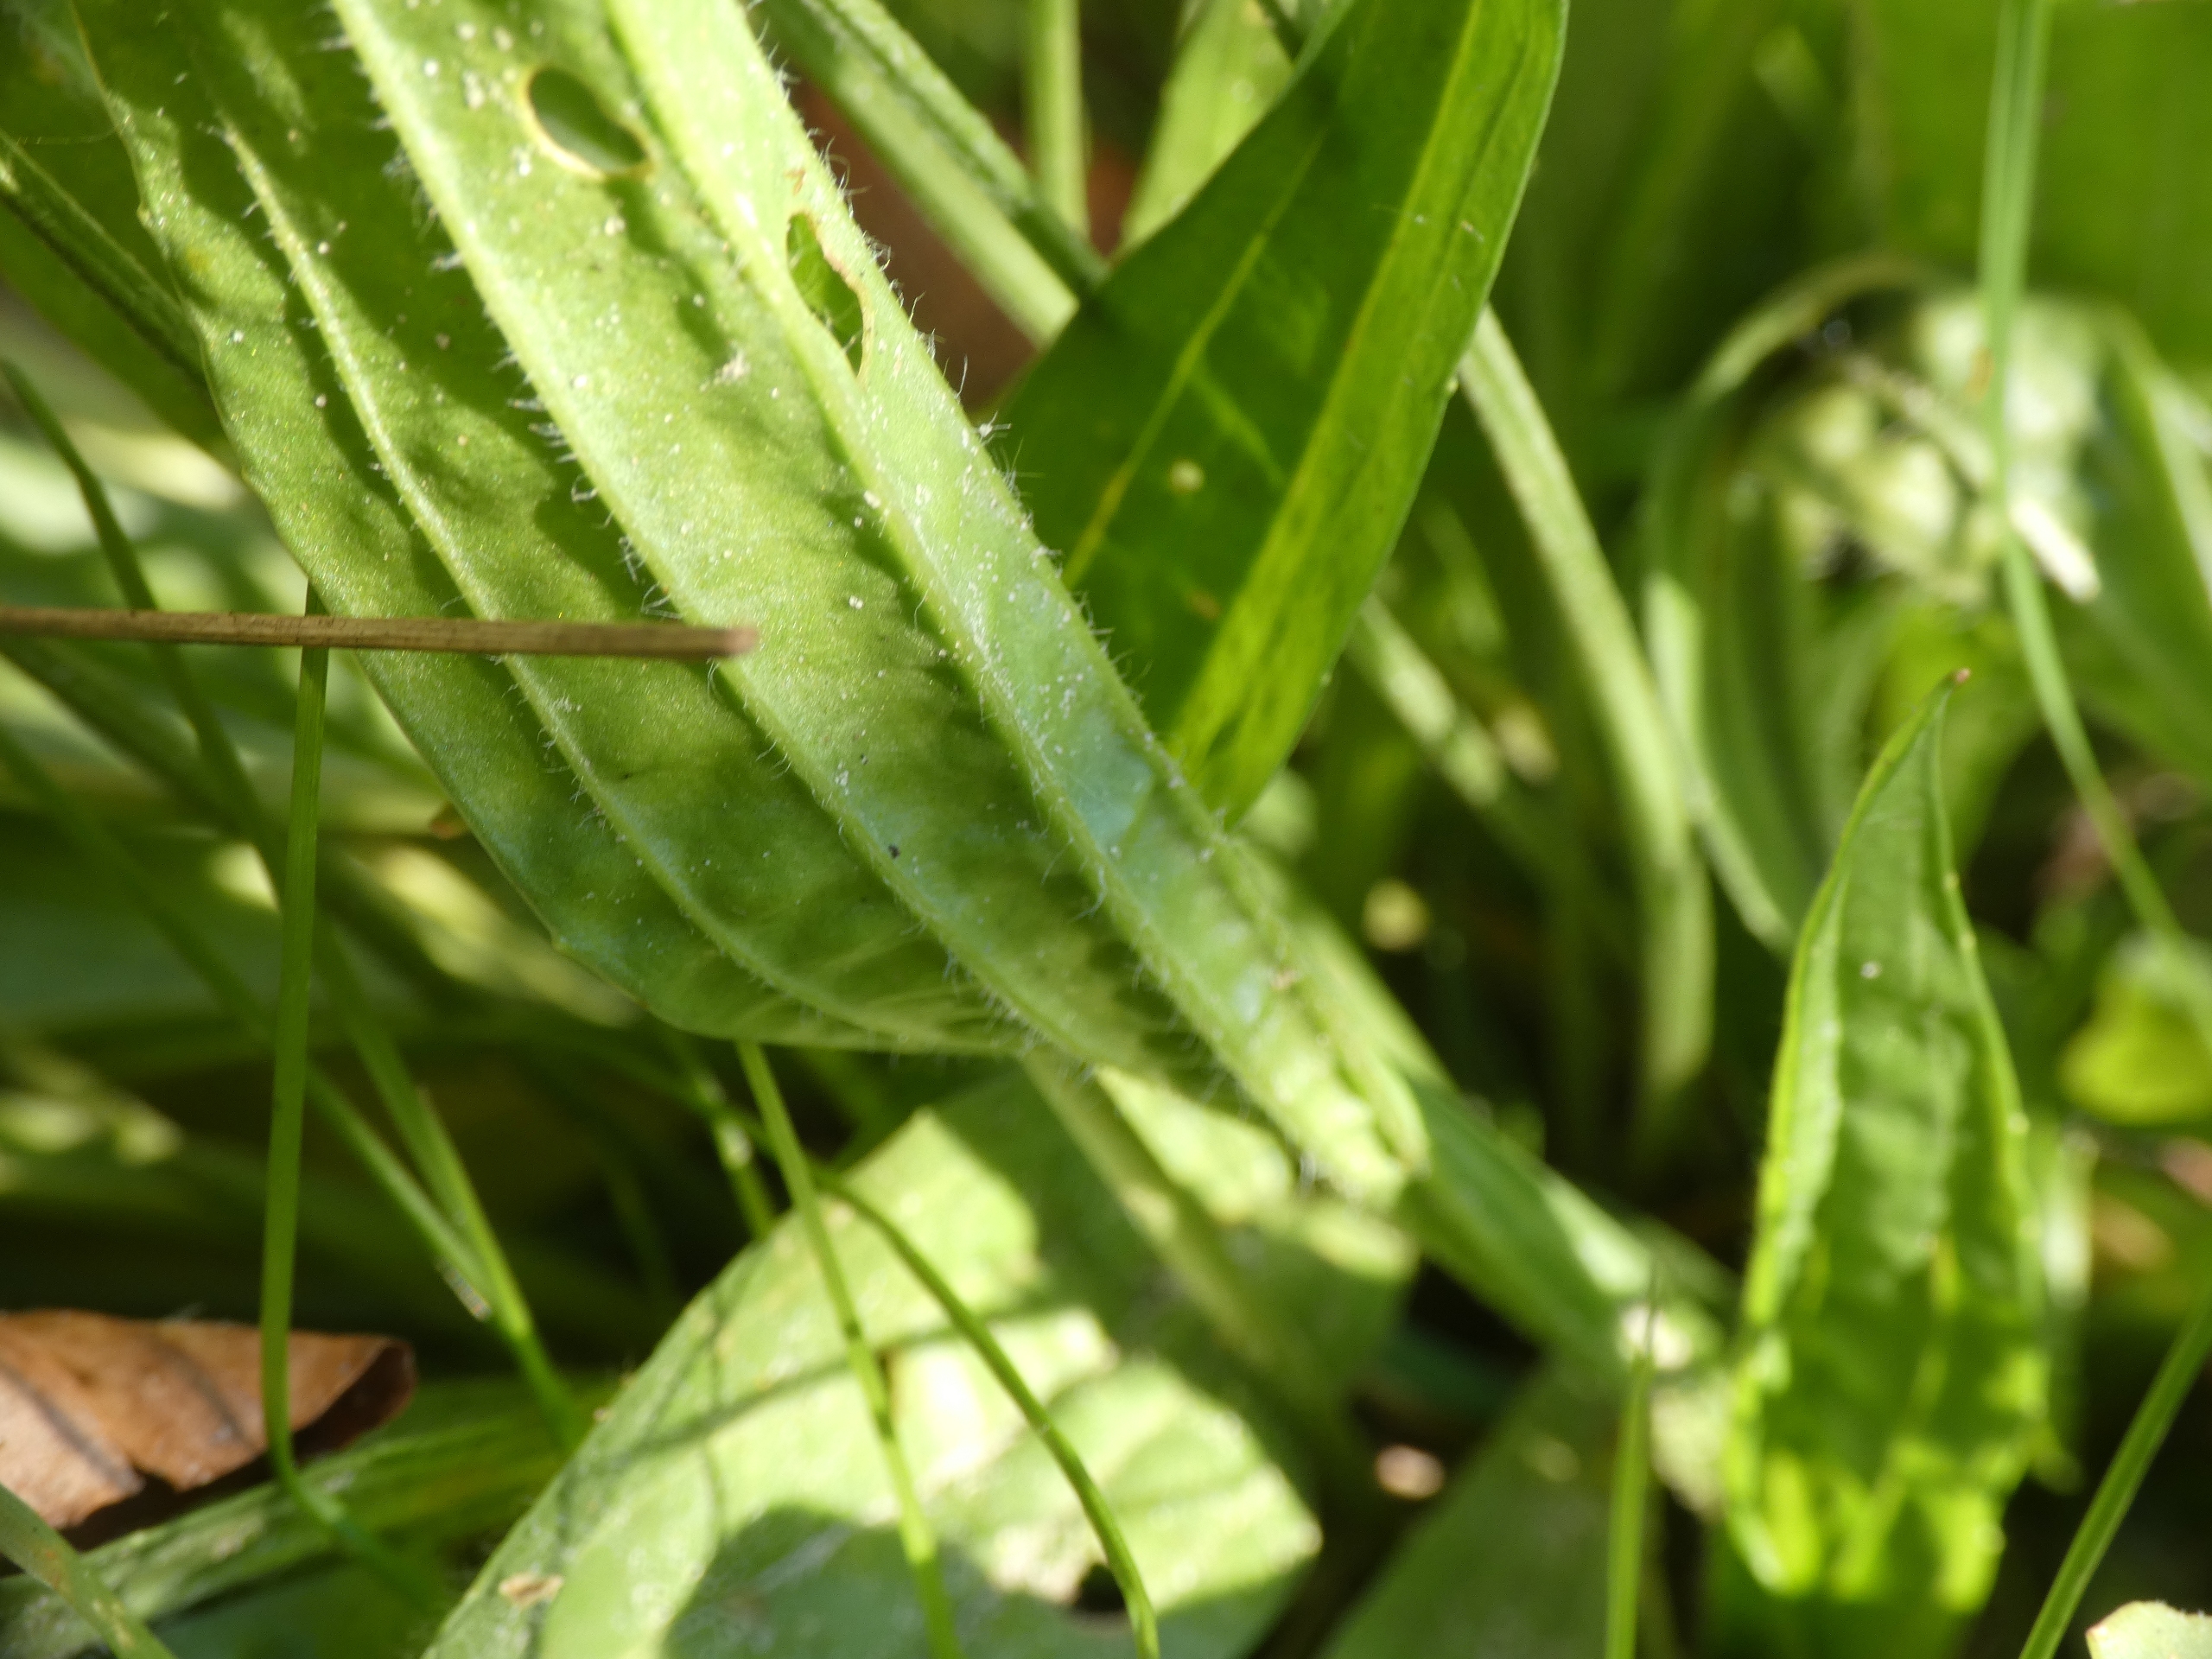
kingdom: Plantae
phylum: Tracheophyta
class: Magnoliopsida
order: Lamiales
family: Plantaginaceae
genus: Plantago
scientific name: Plantago lanceolata
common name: Lancet-vejbred
